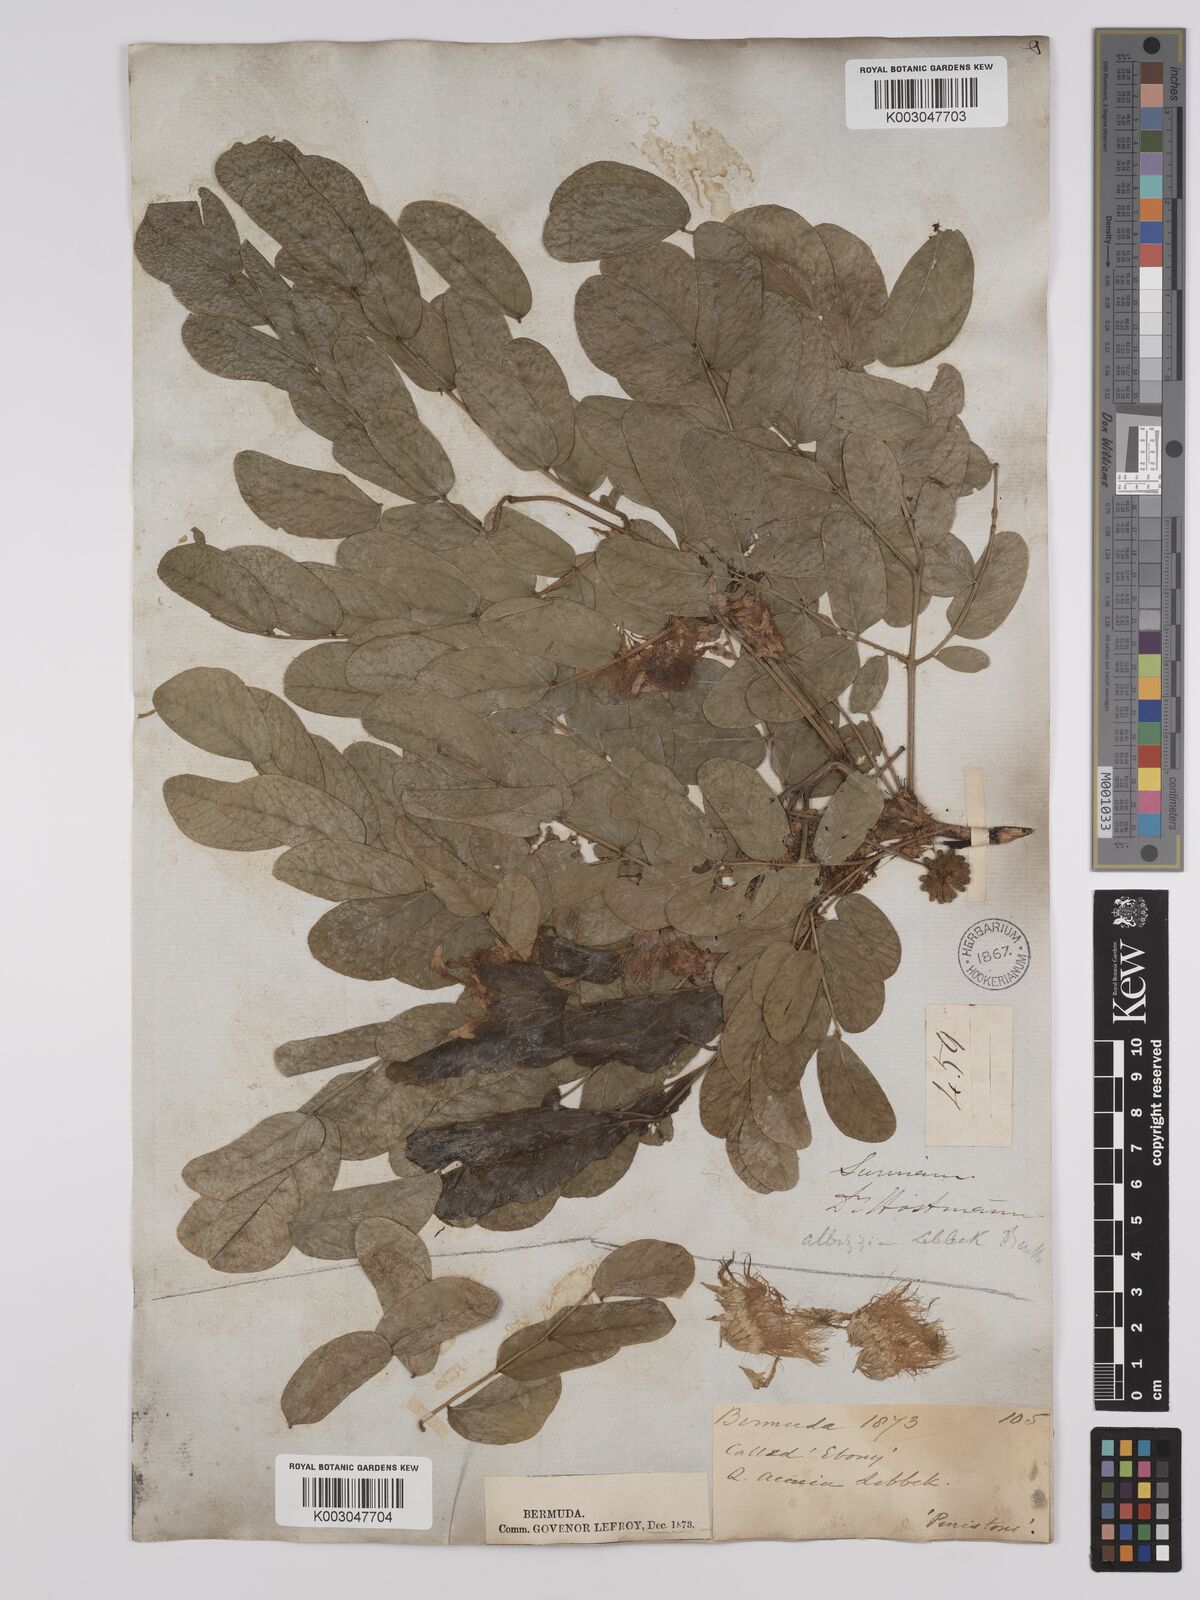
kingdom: Plantae
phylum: Tracheophyta
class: Magnoliopsida
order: Fabales
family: Fabaceae
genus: Albizia
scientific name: Albizia lebbeck
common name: Woman's tongue
